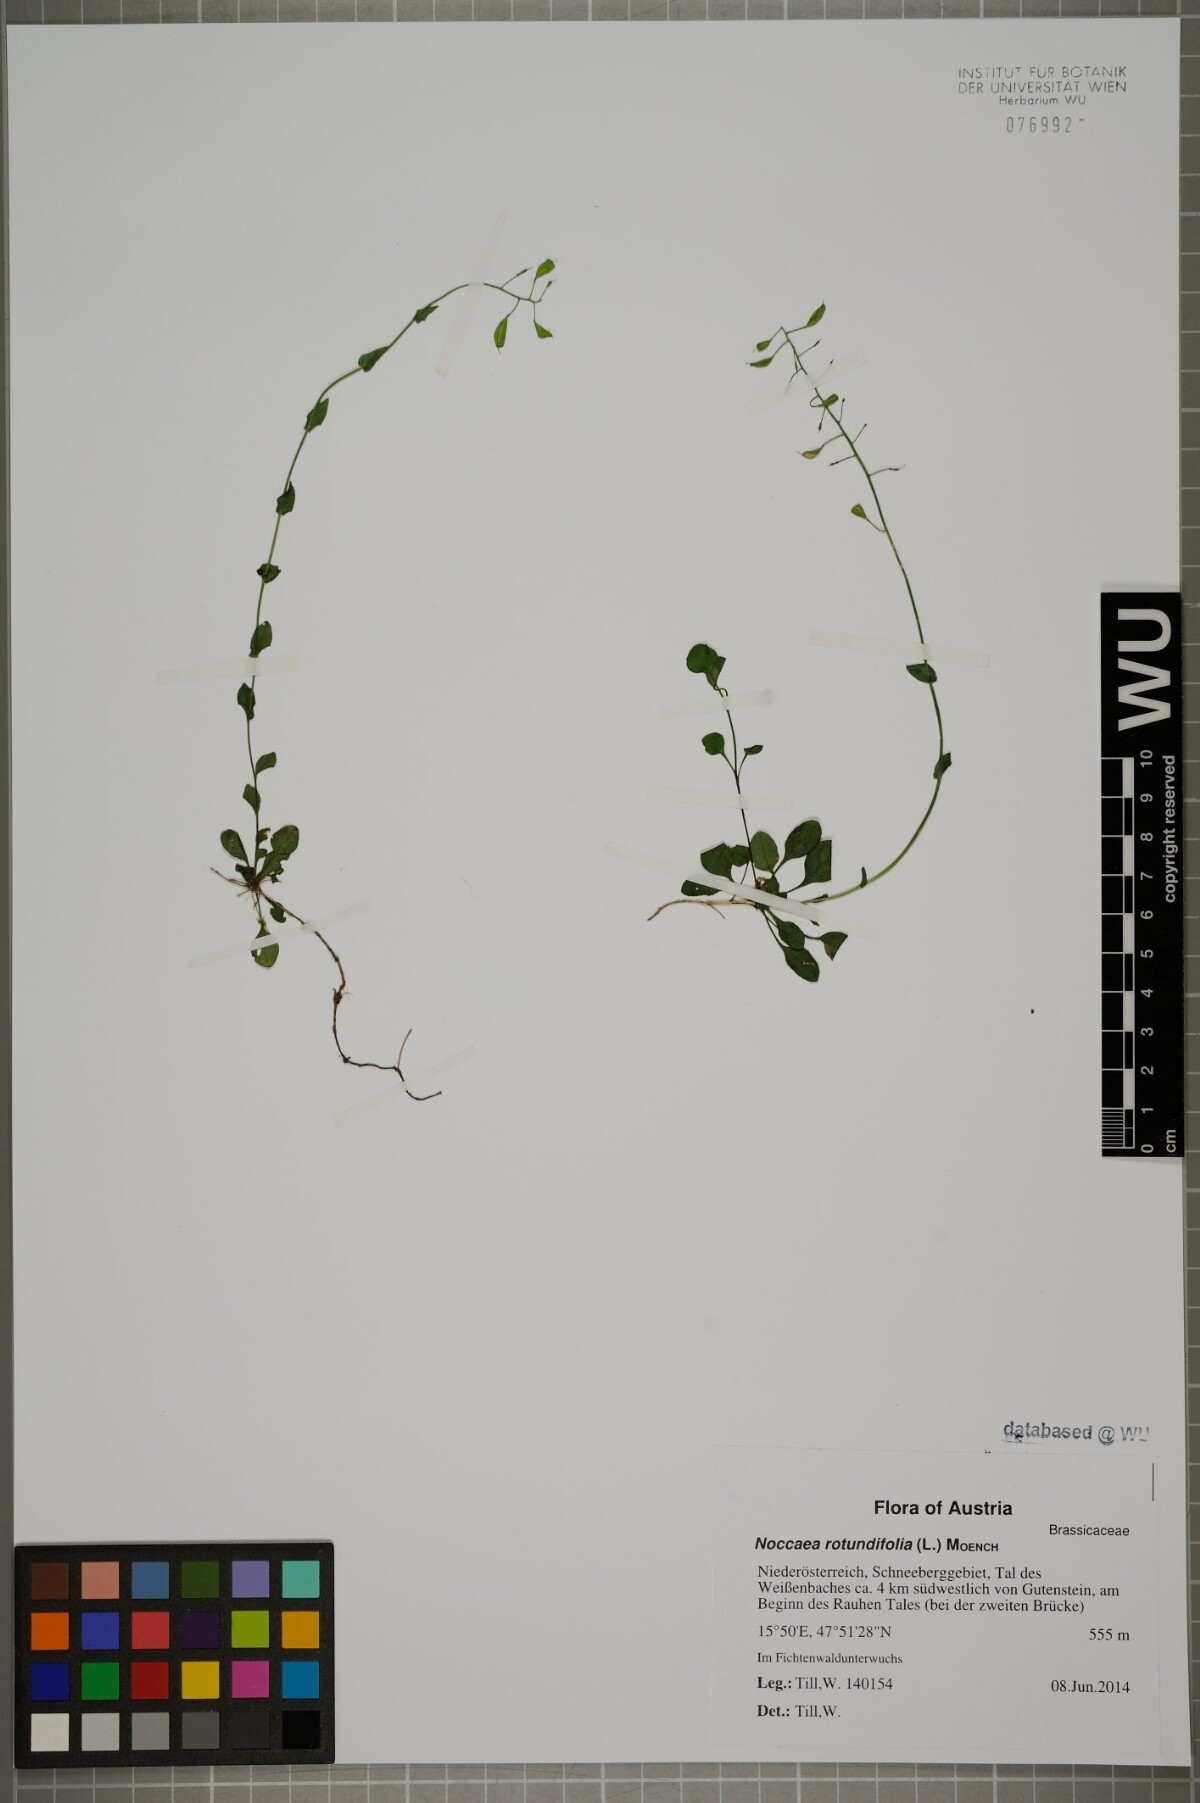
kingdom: Plantae
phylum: Tracheophyta
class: Magnoliopsida
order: Brassicales
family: Brassicaceae
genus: Noccaea
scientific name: Noccaea rotundifolia
